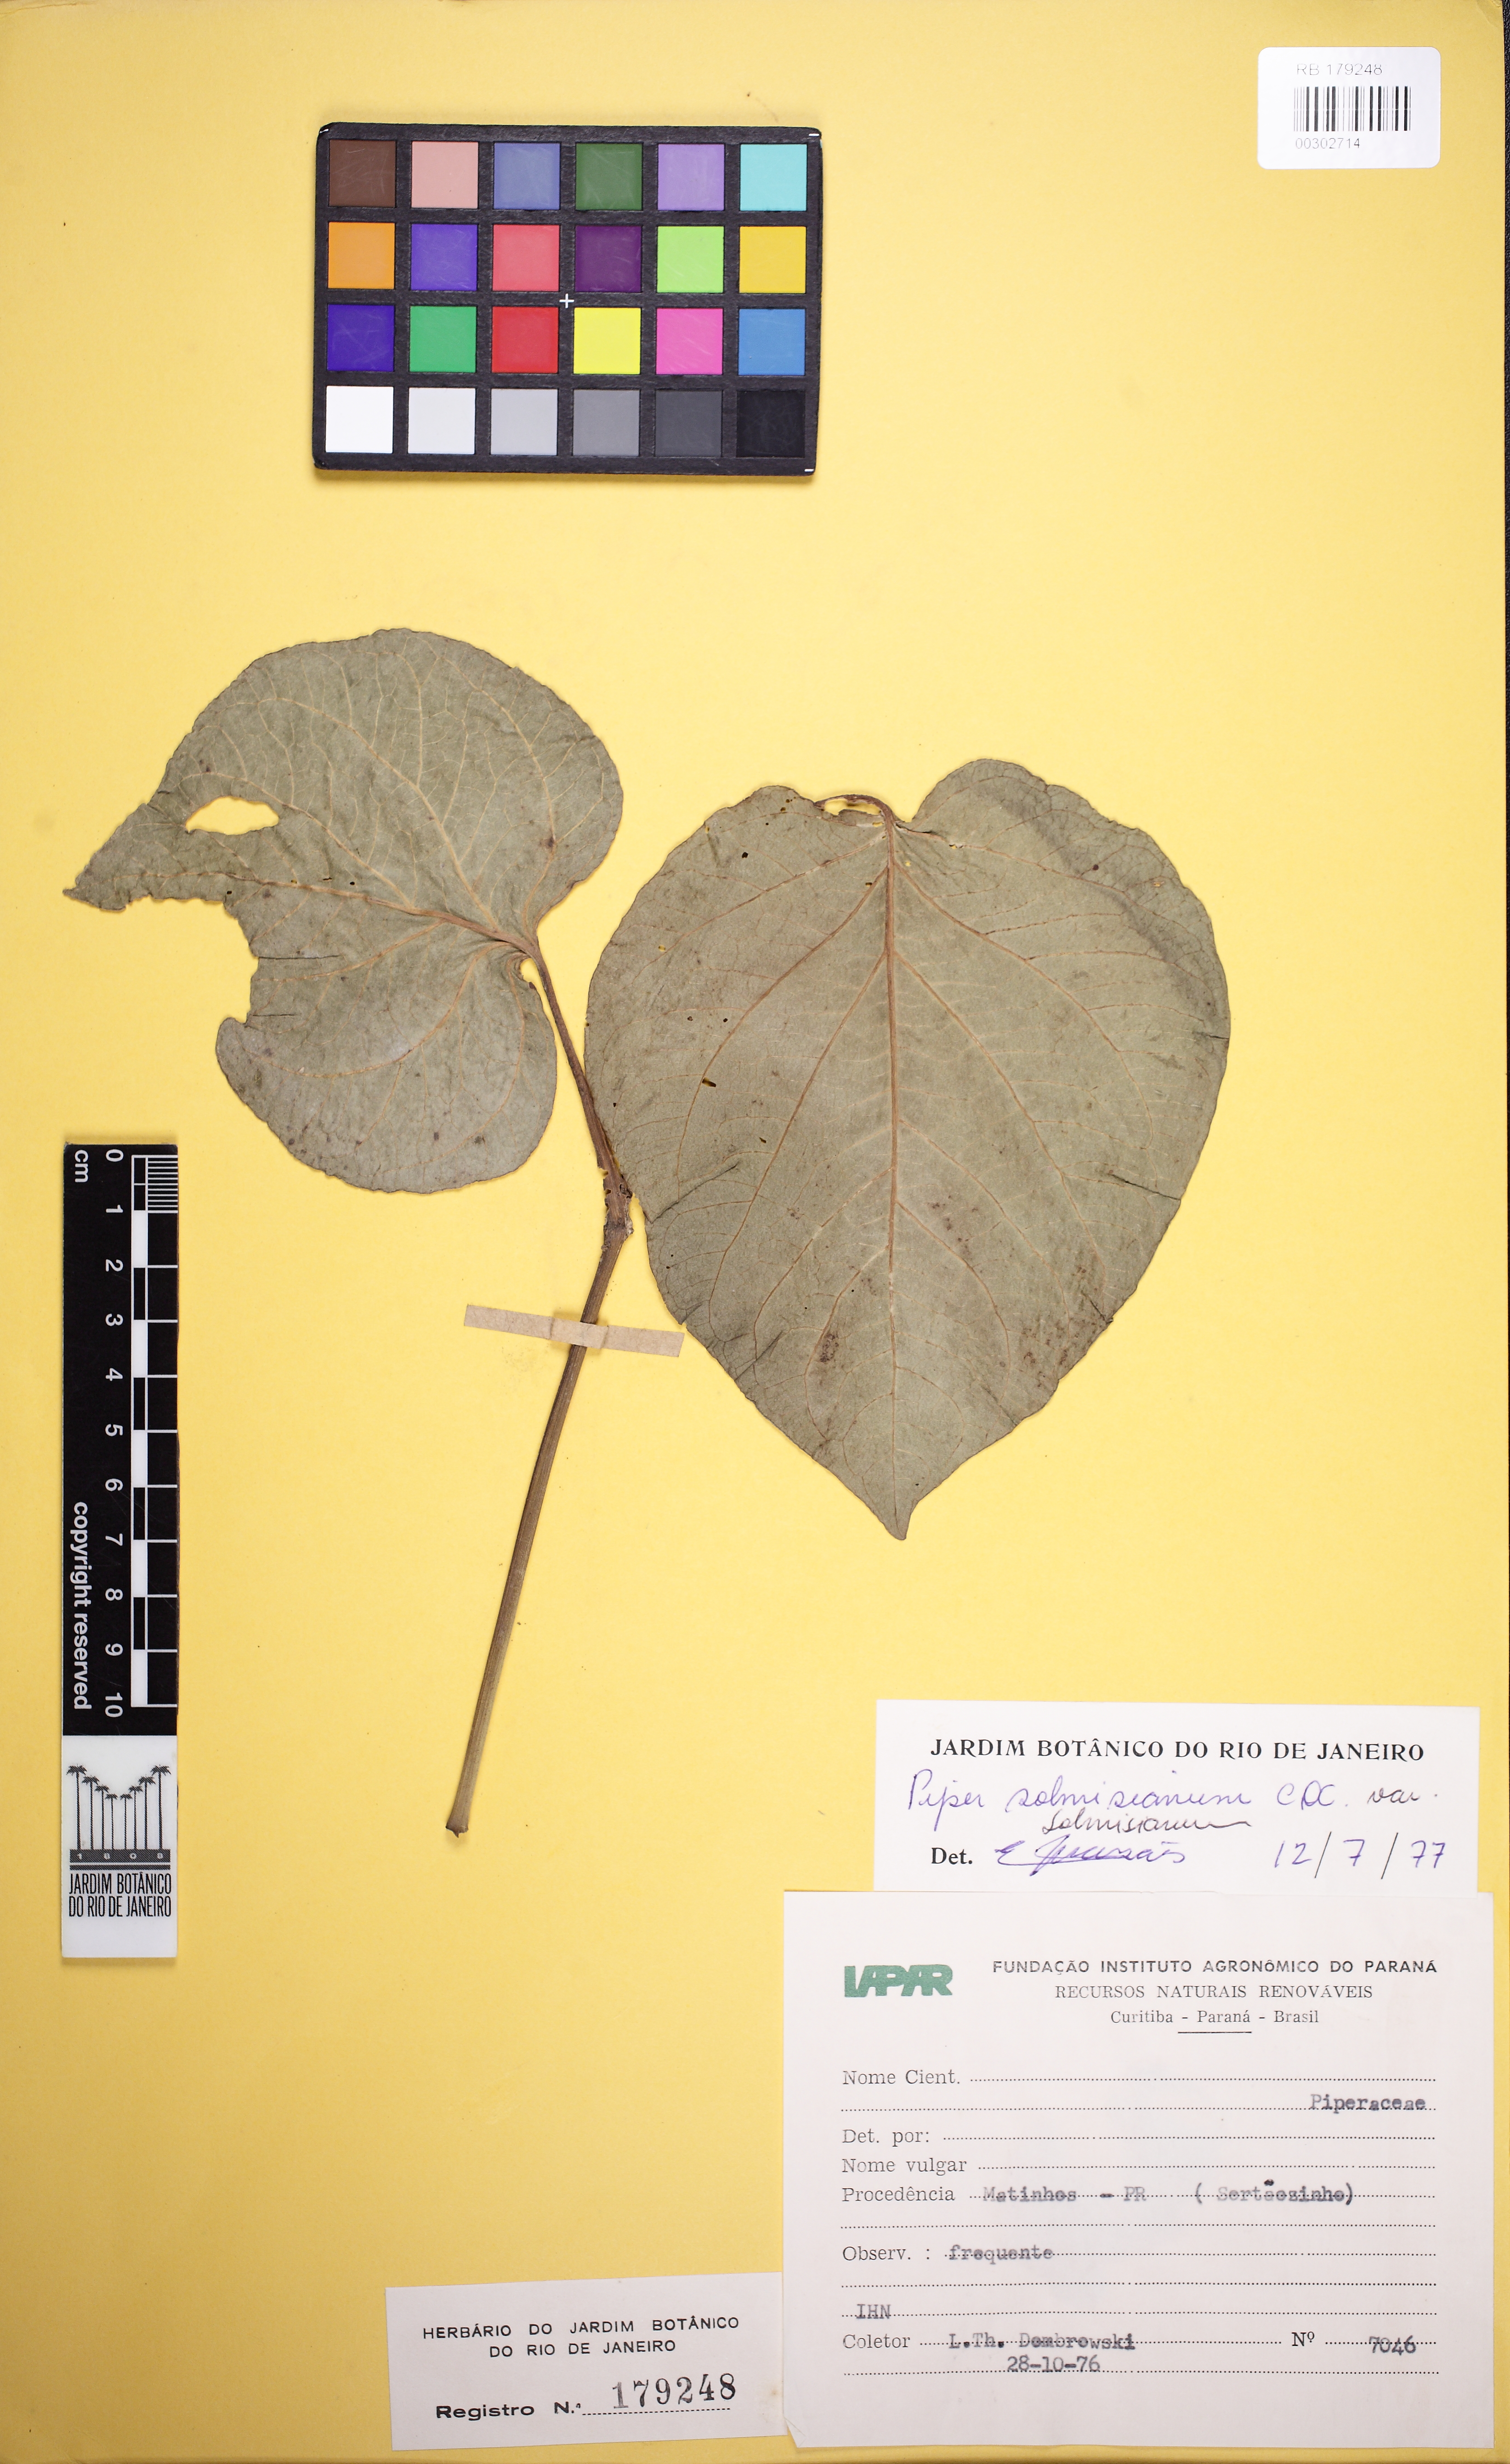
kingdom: Plantae
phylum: Tracheophyta
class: Magnoliopsida
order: Piperales
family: Piperaceae
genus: Piper
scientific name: Piper solmsianum
